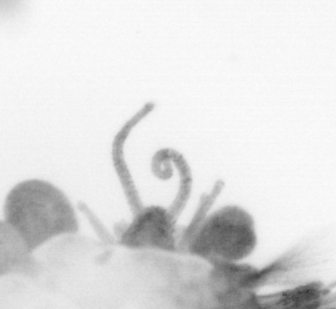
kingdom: Animalia
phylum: Arthropoda
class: Copepoda
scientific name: Copepoda
